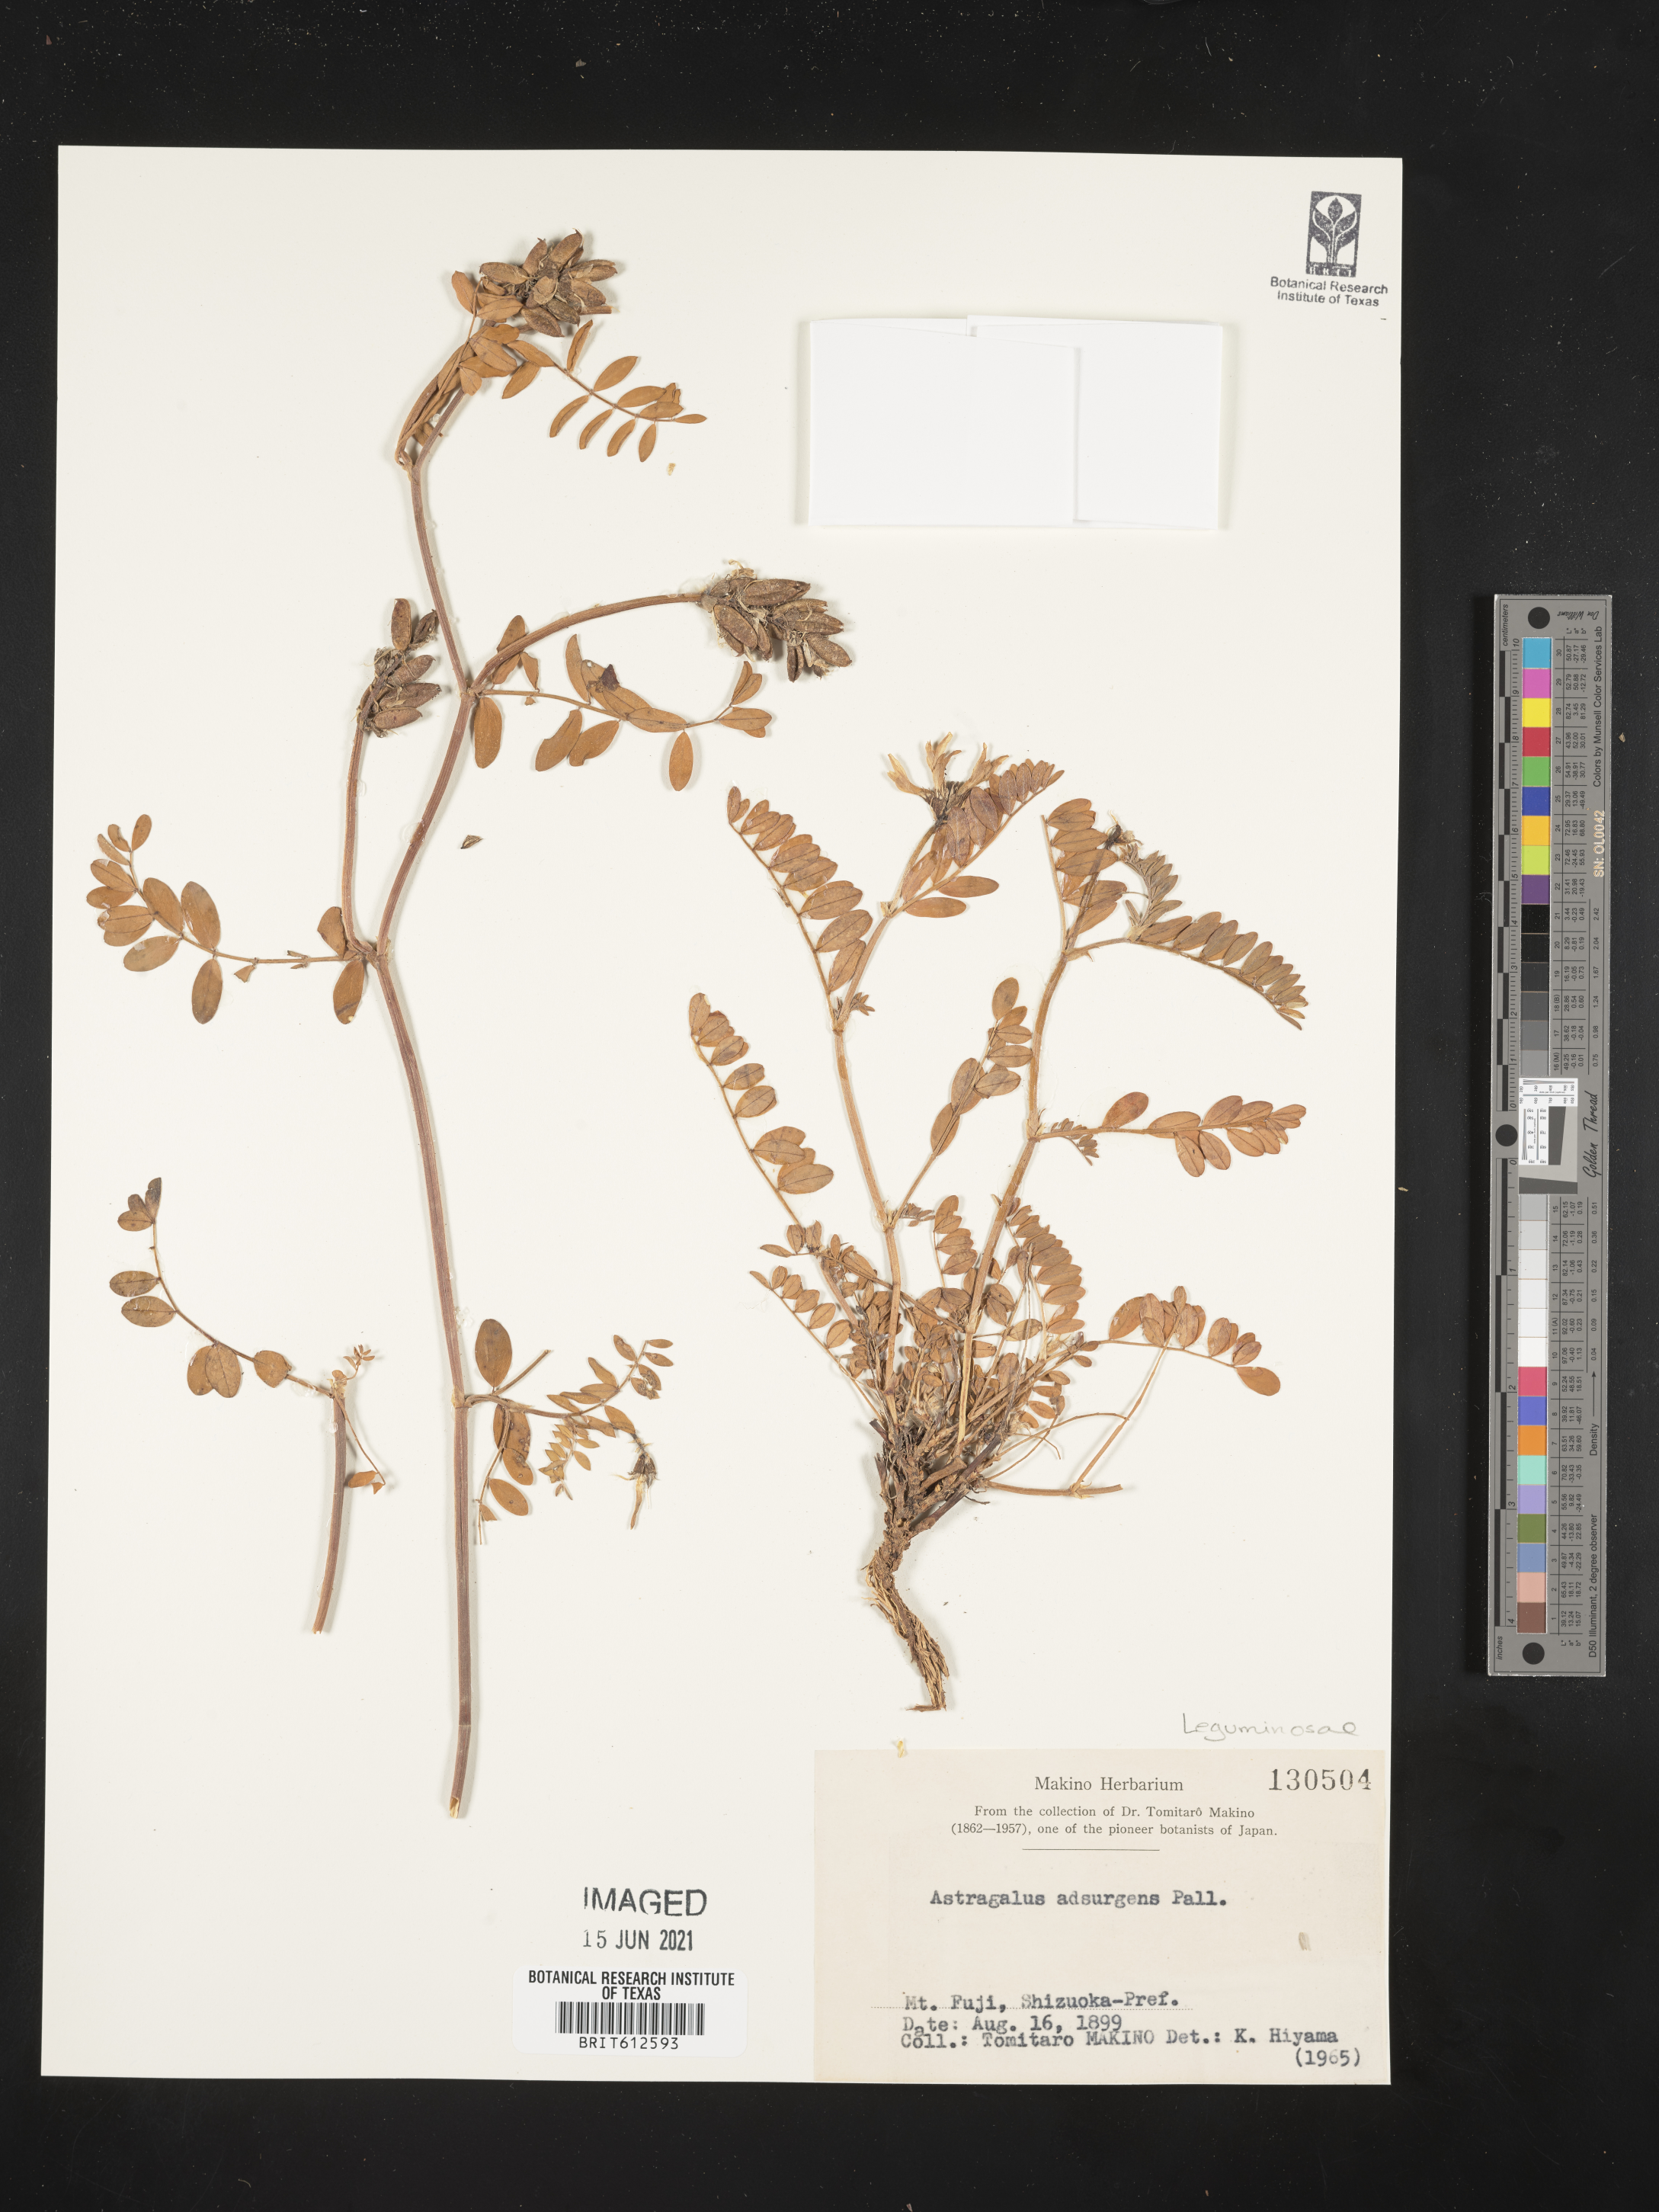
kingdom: Plantae
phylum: Tracheophyta
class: Magnoliopsida
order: Fabales
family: Fabaceae
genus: Astragalus
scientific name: Astragalus laxmannii
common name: Laxmann's milk-vetch
